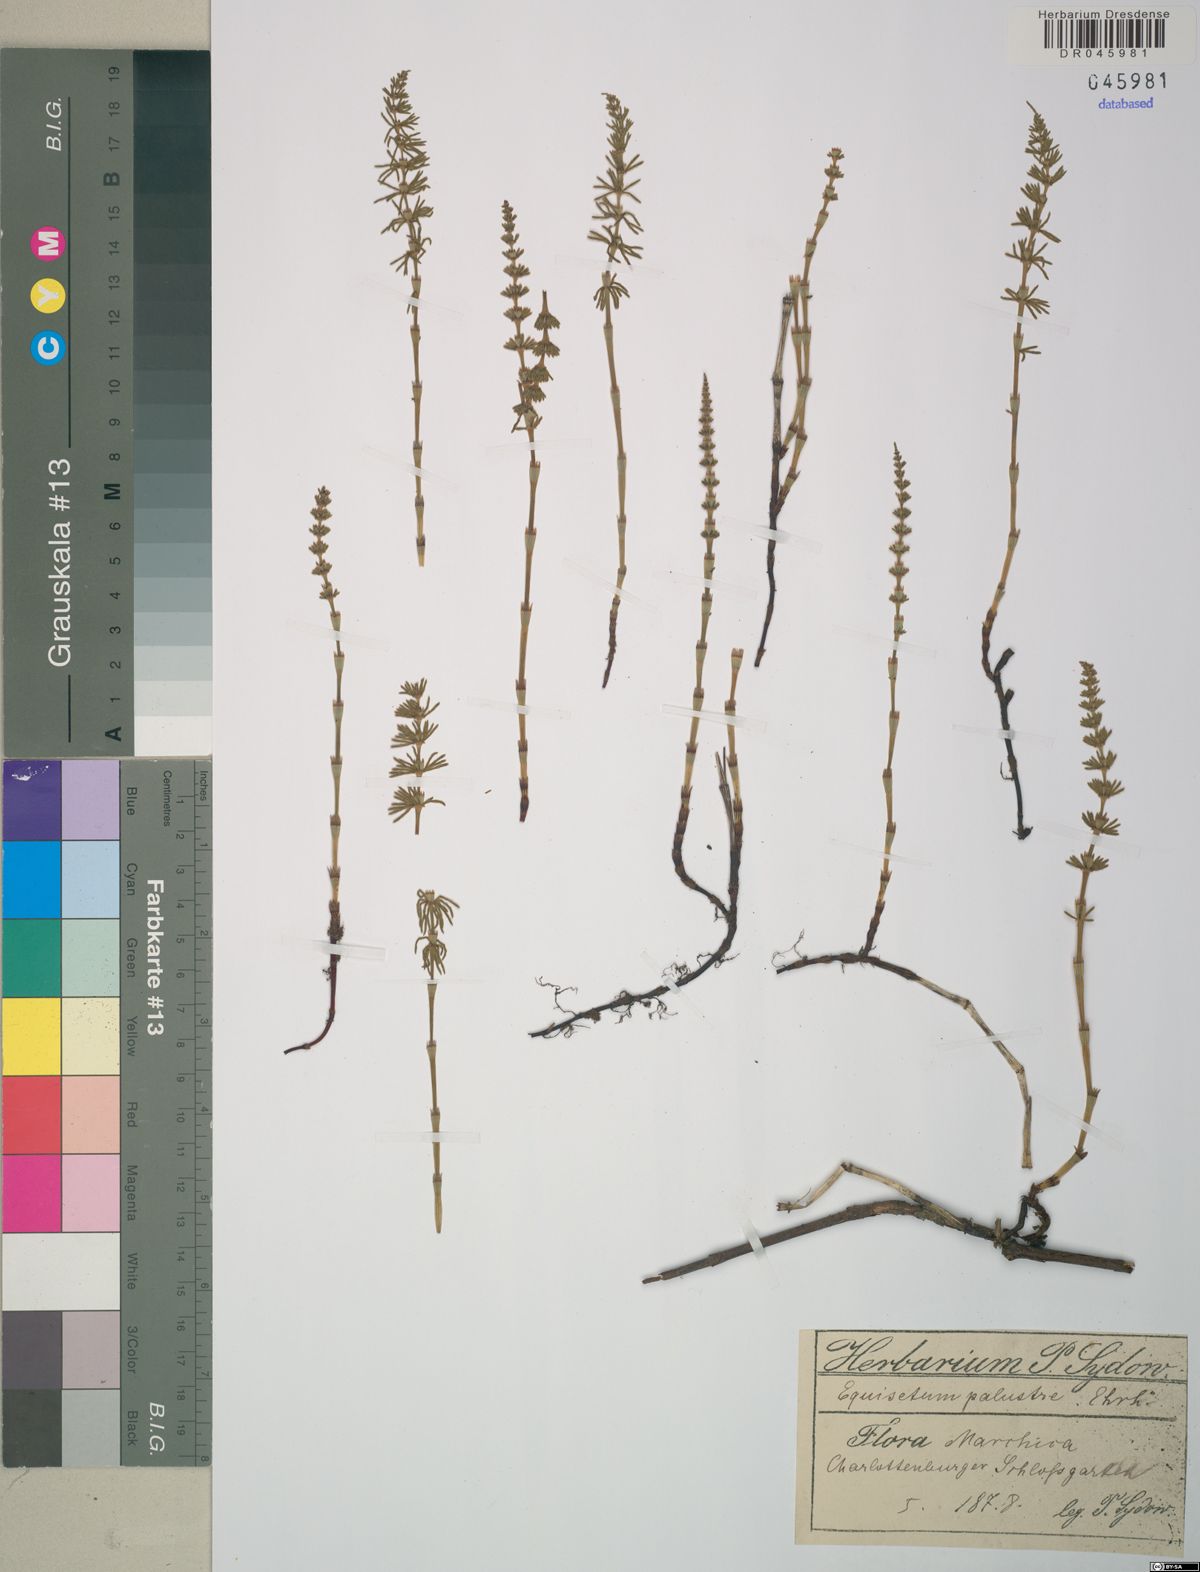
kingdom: Plantae
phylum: Tracheophyta
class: Polypodiopsida
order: Equisetales
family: Equisetaceae
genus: Equisetum
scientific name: Equisetum palustre
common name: Marsh horsetail
